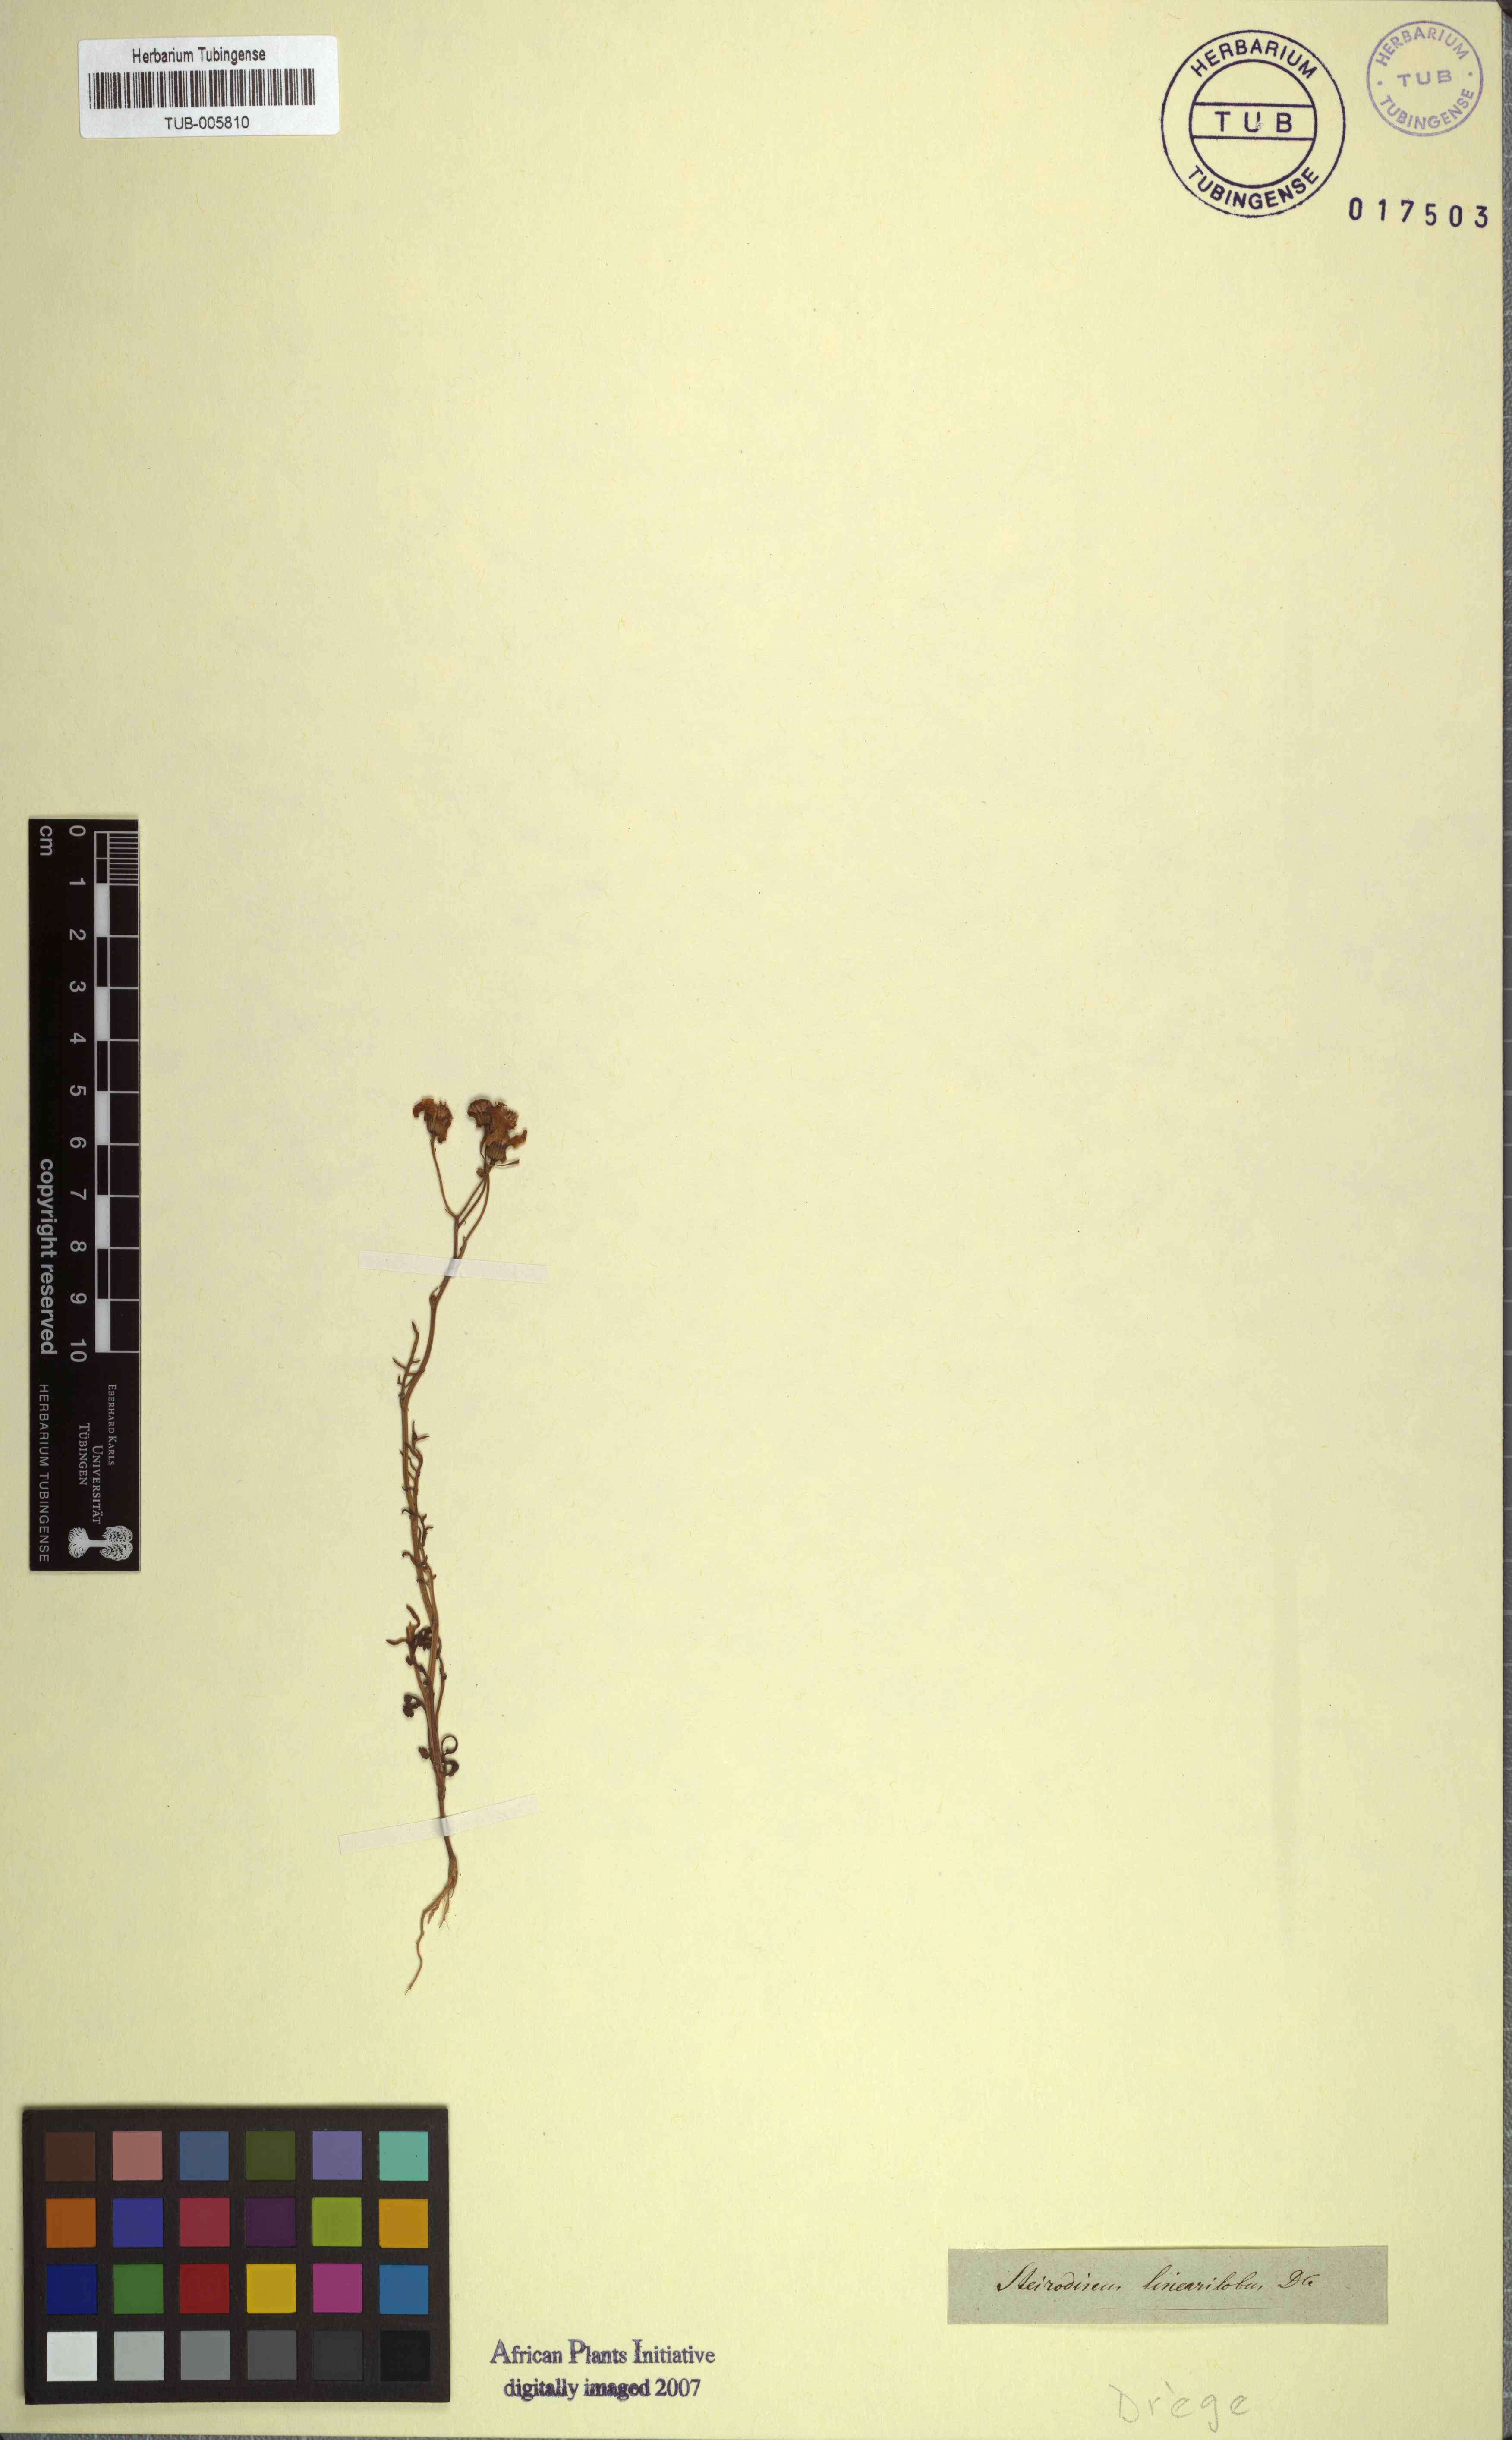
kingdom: Plantae
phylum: Tracheophyta
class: Magnoliopsida
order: Asterales
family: Asteraceae
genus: Steirodiscus
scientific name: Steirodiscus linearilobus
